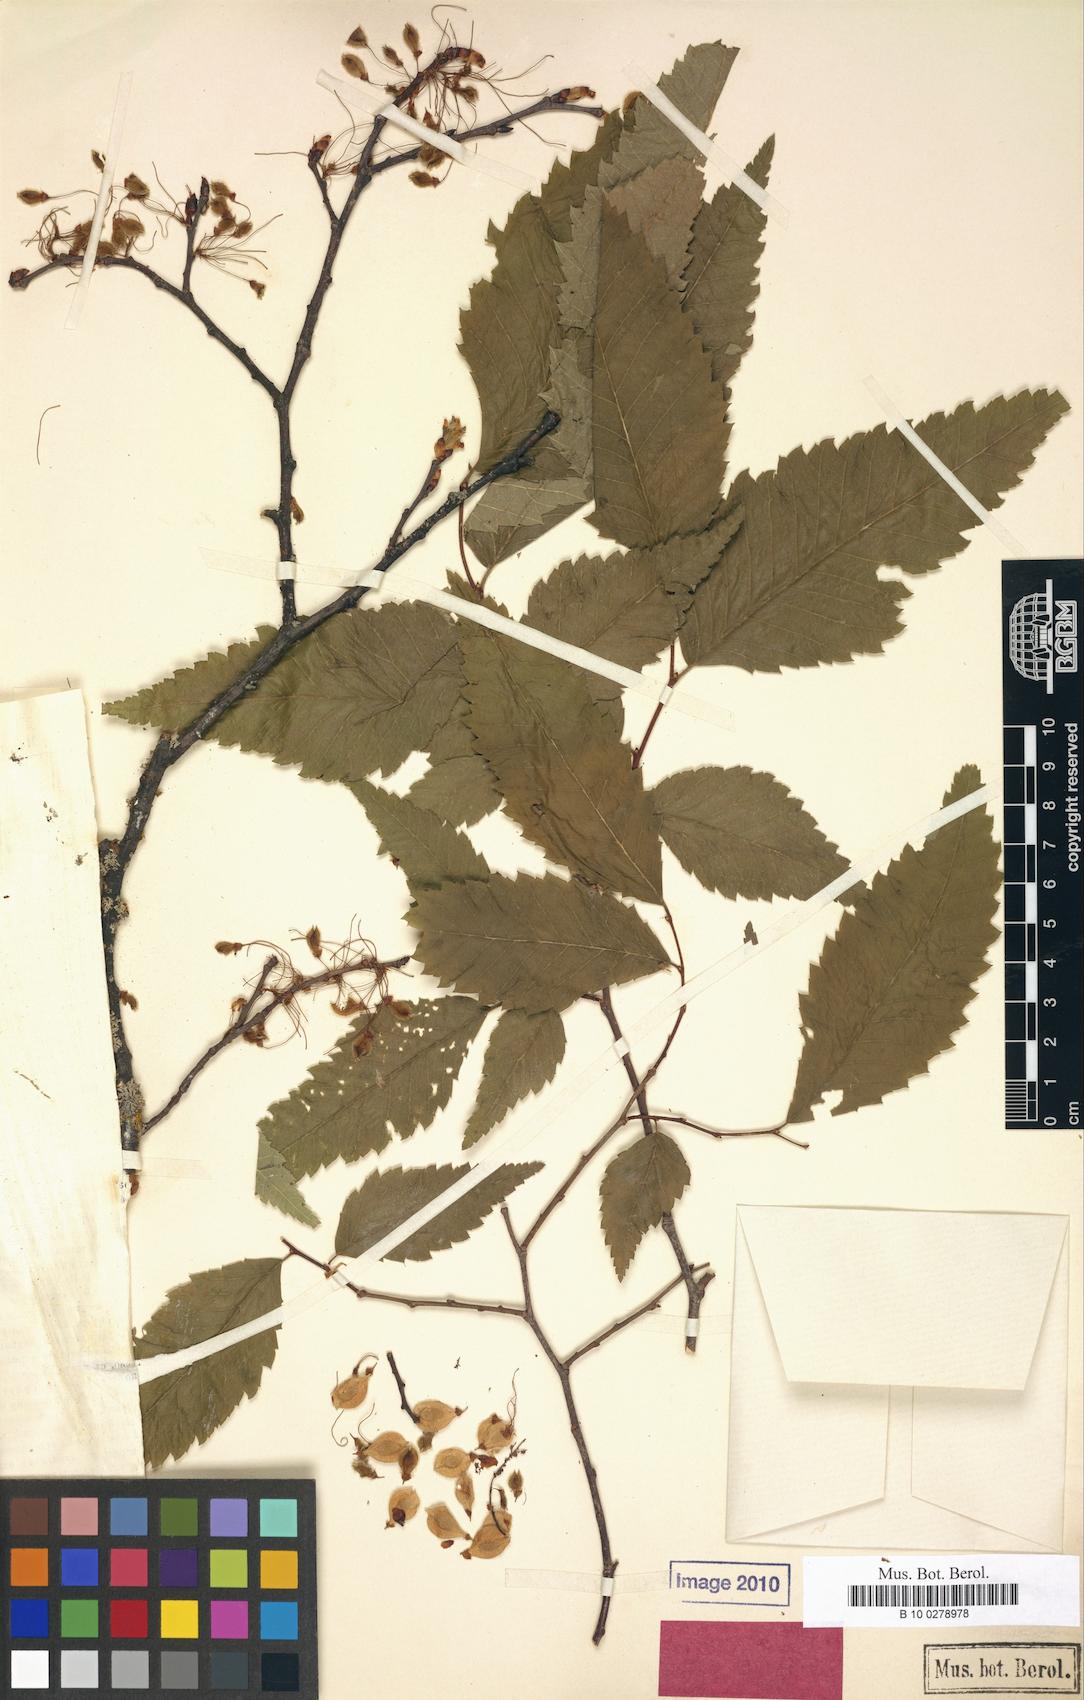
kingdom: Plantae
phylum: Tracheophyta
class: Magnoliopsida
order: Rosales
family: Ulmaceae
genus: Ulmus
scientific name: Ulmus laevis
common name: European white-elm
